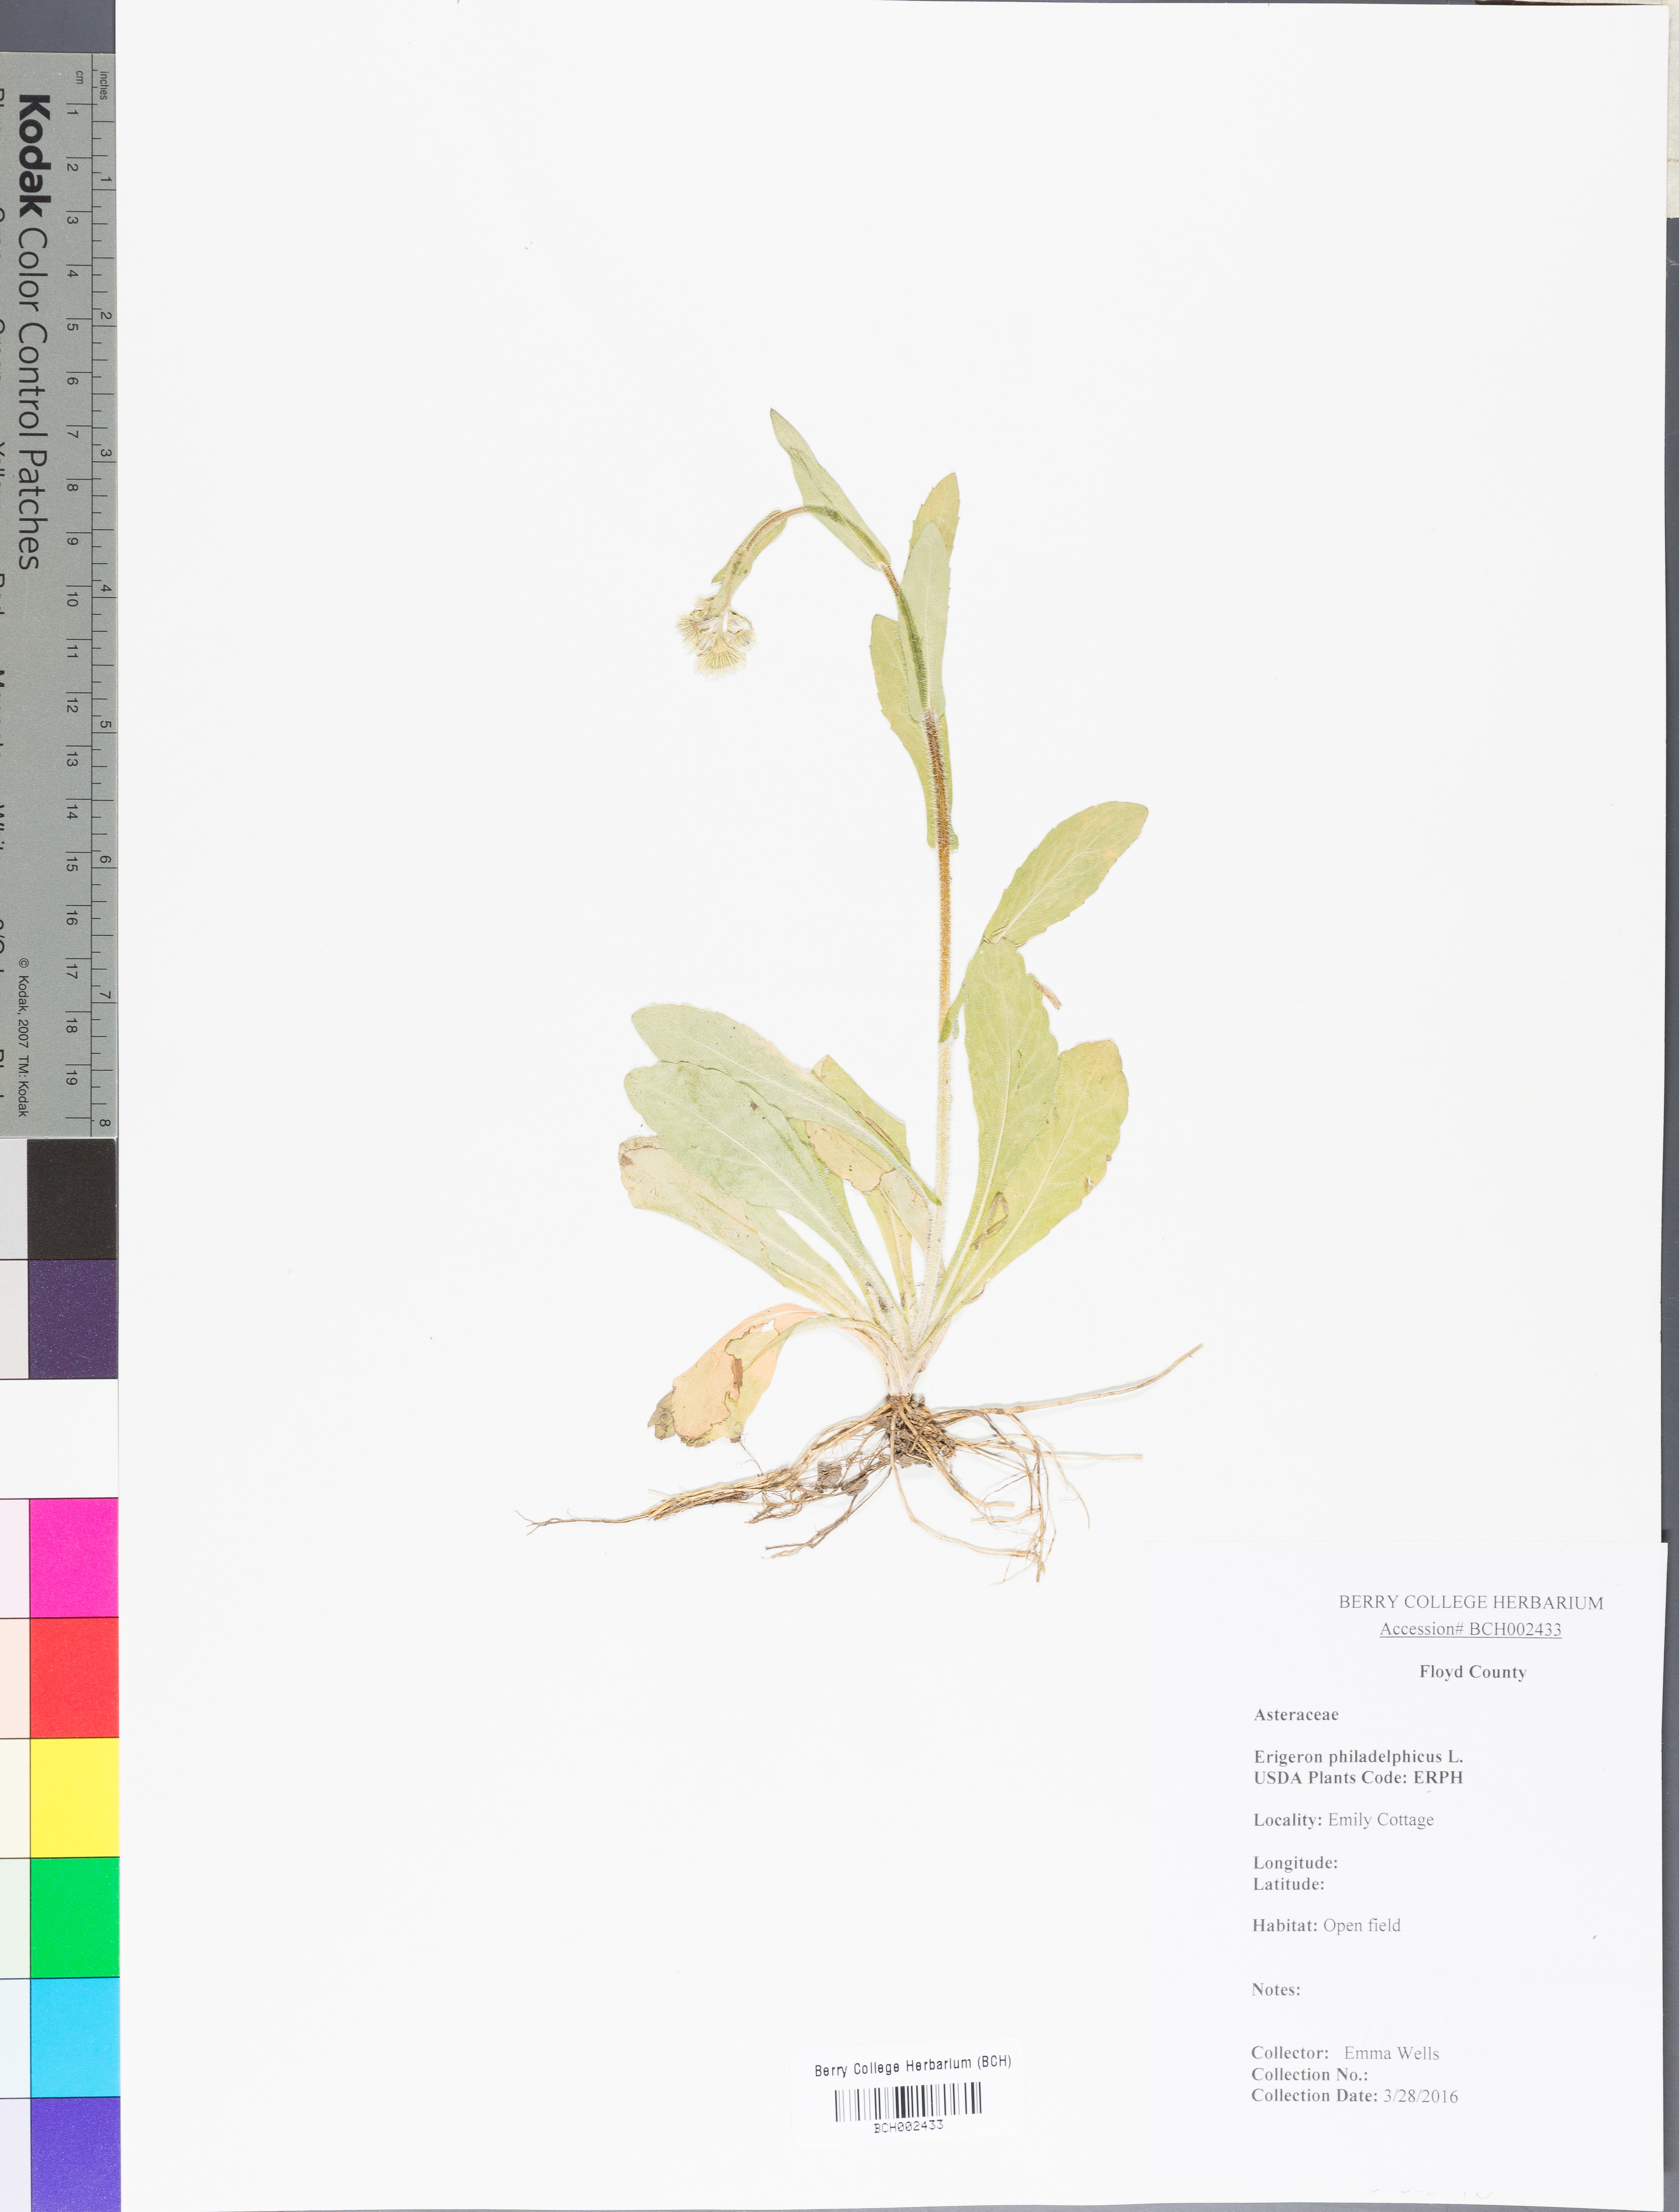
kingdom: Plantae
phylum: Tracheophyta
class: Magnoliopsida
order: Asterales
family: Asteraceae
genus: Erigeron
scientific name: Erigeron philadelphicus
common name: Robin's-plantain
